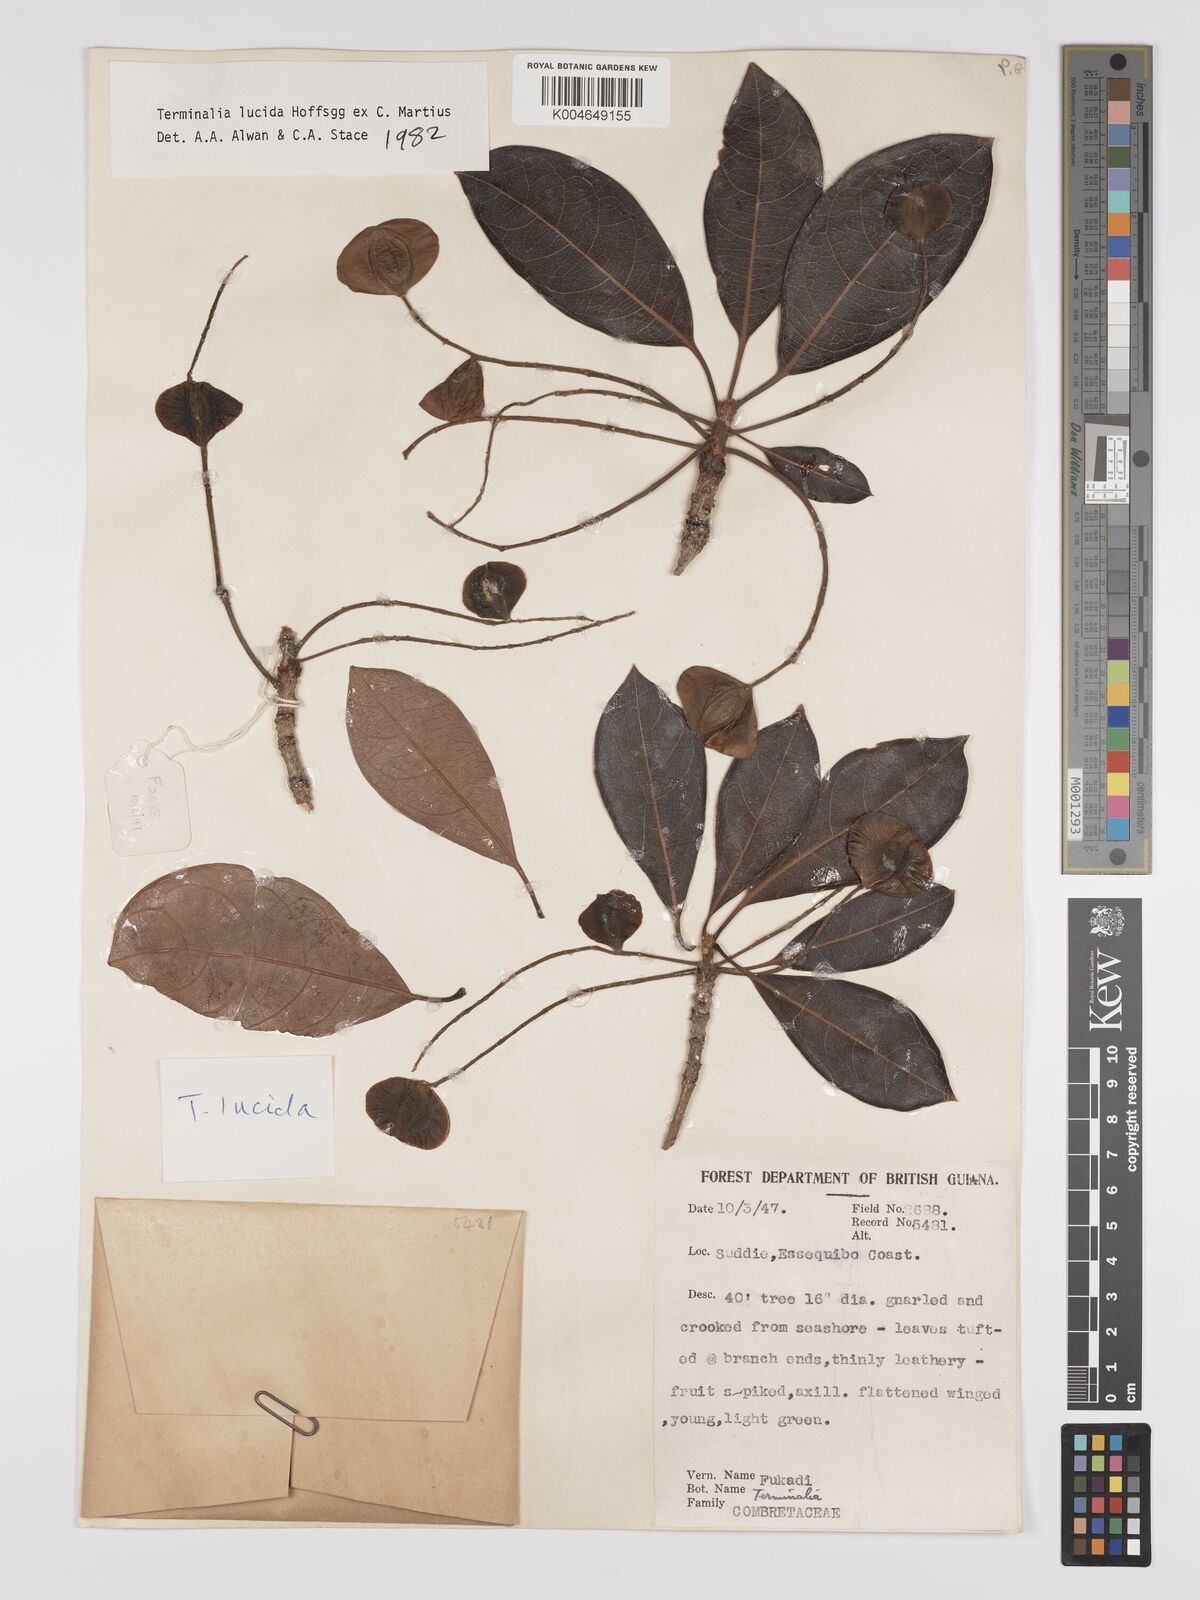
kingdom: Plantae
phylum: Tracheophyta
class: Magnoliopsida
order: Myrtales
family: Combretaceae
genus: Terminalia
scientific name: Terminalia lucida
